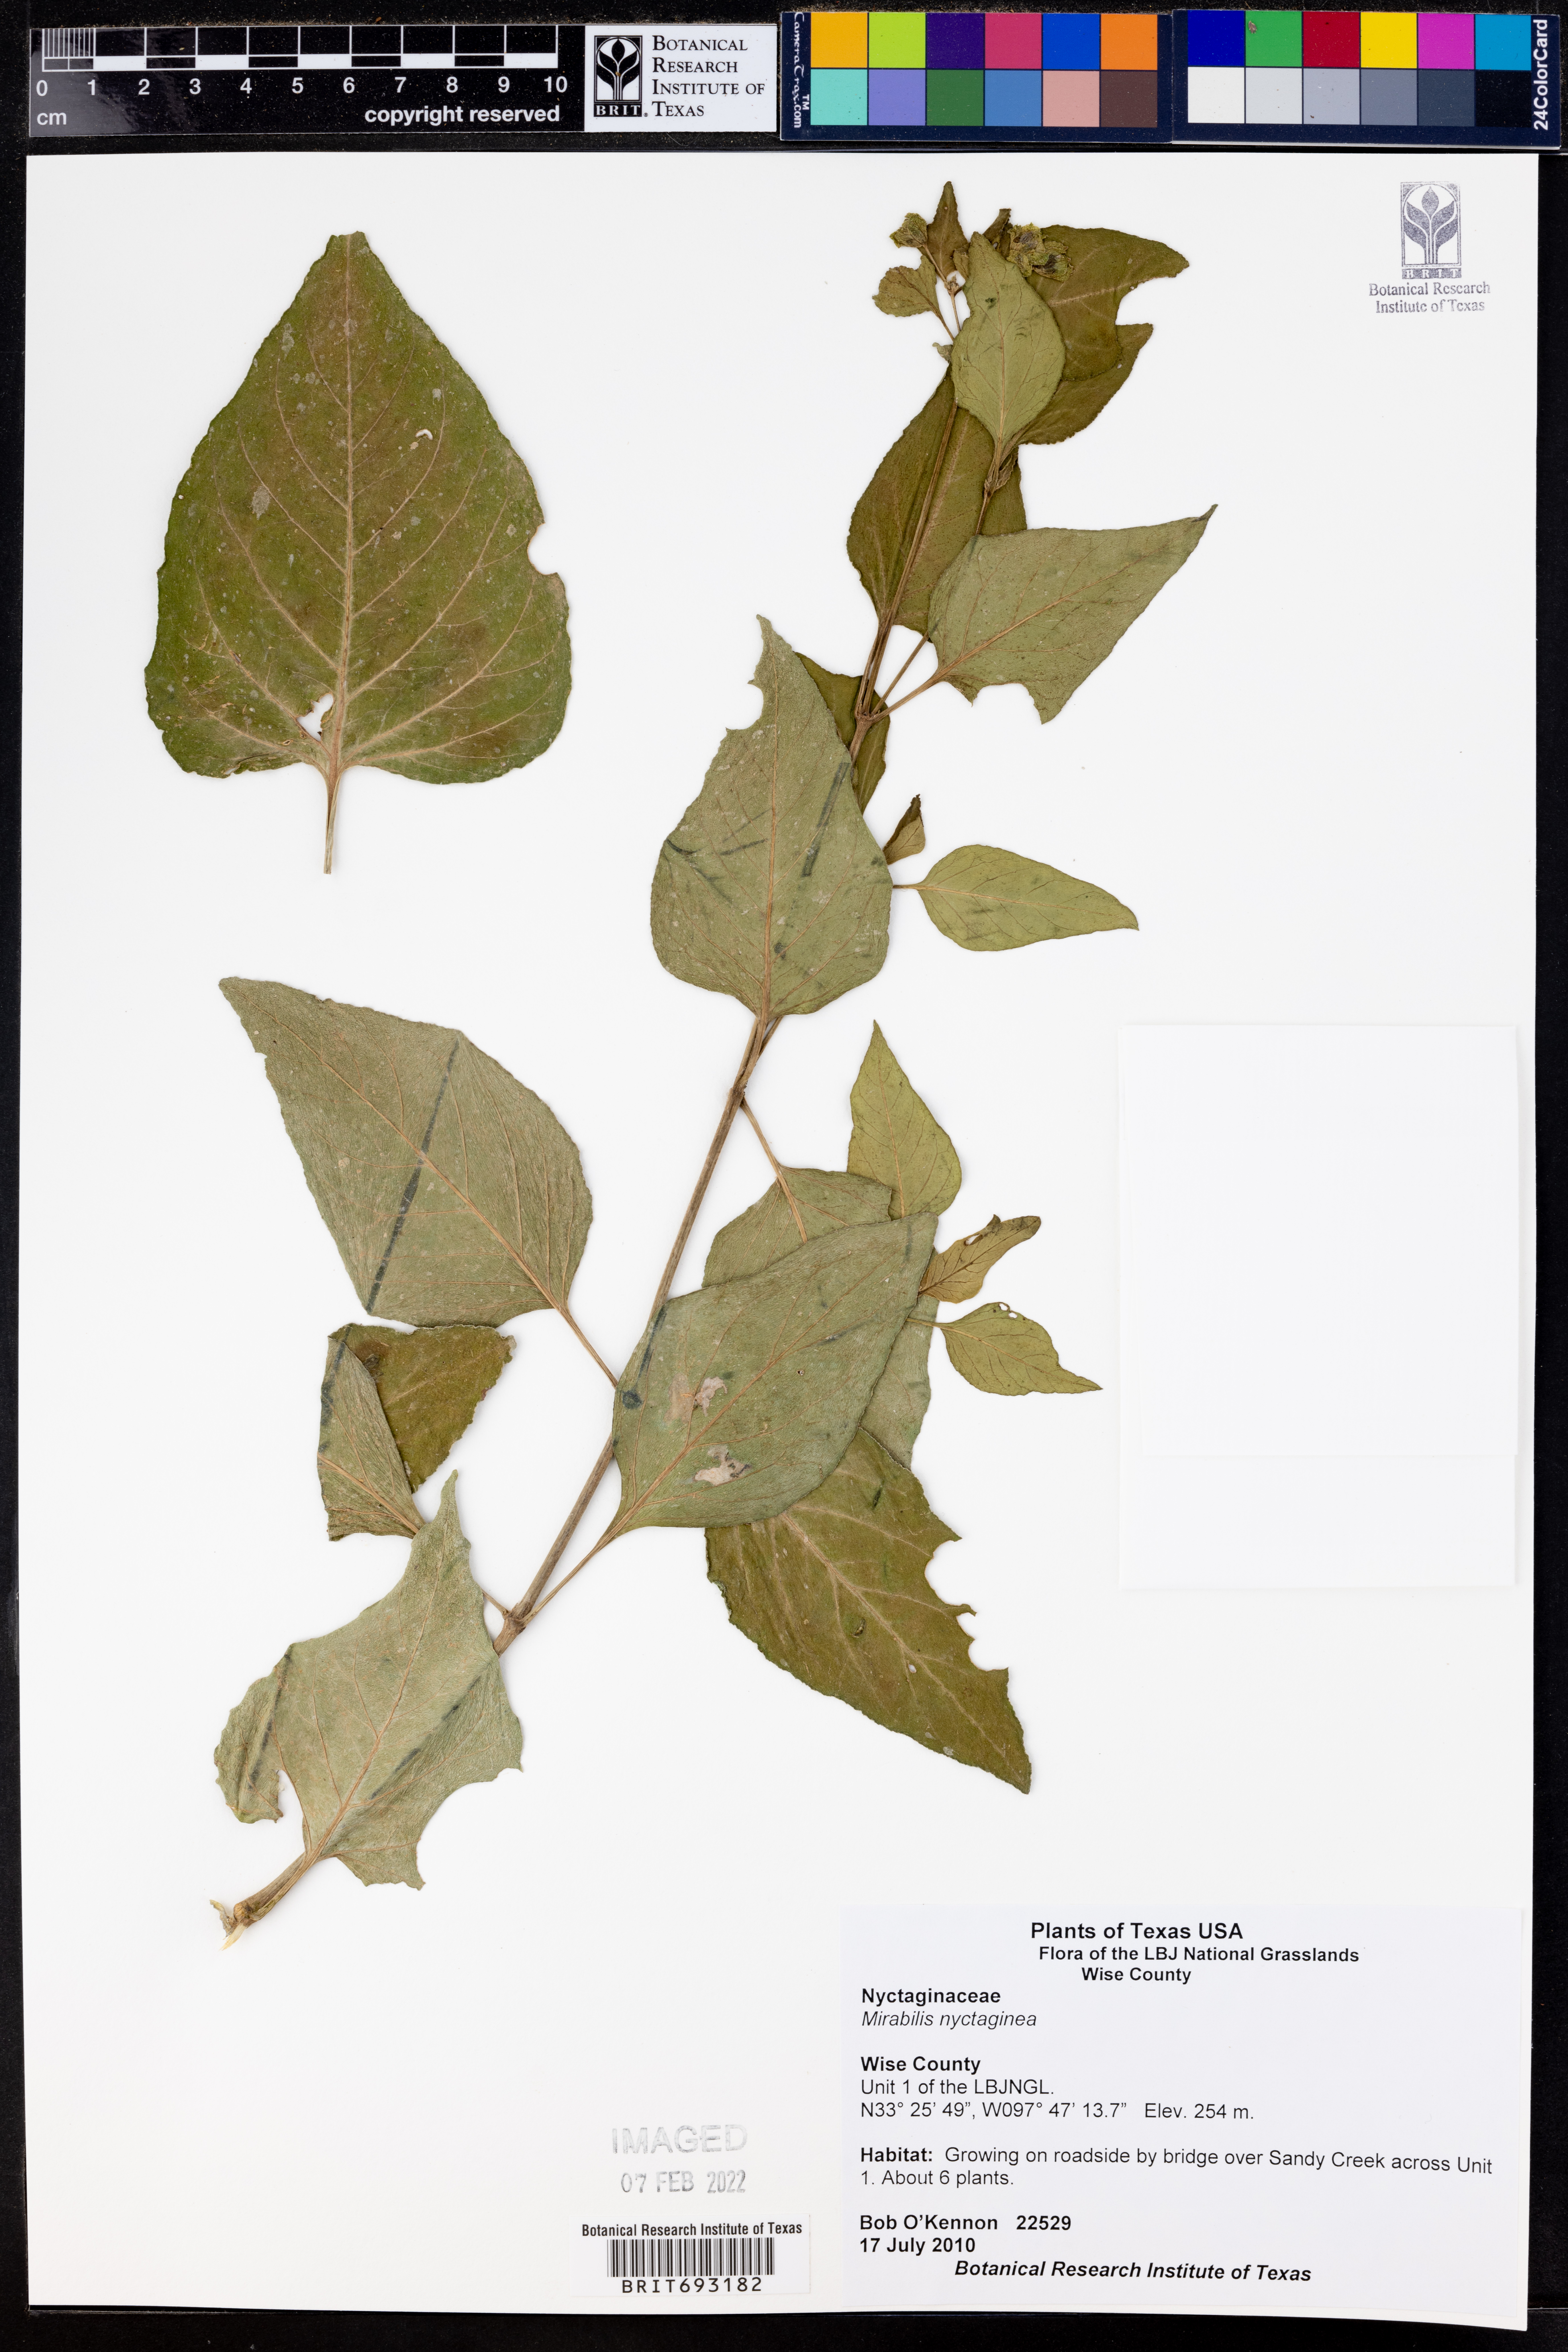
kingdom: Plantae
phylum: Tracheophyta
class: Magnoliopsida
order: Caryophyllales
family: Nyctaginaceae
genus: Mirabilis
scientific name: Mirabilis nyctaginea
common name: Umbrella wort
